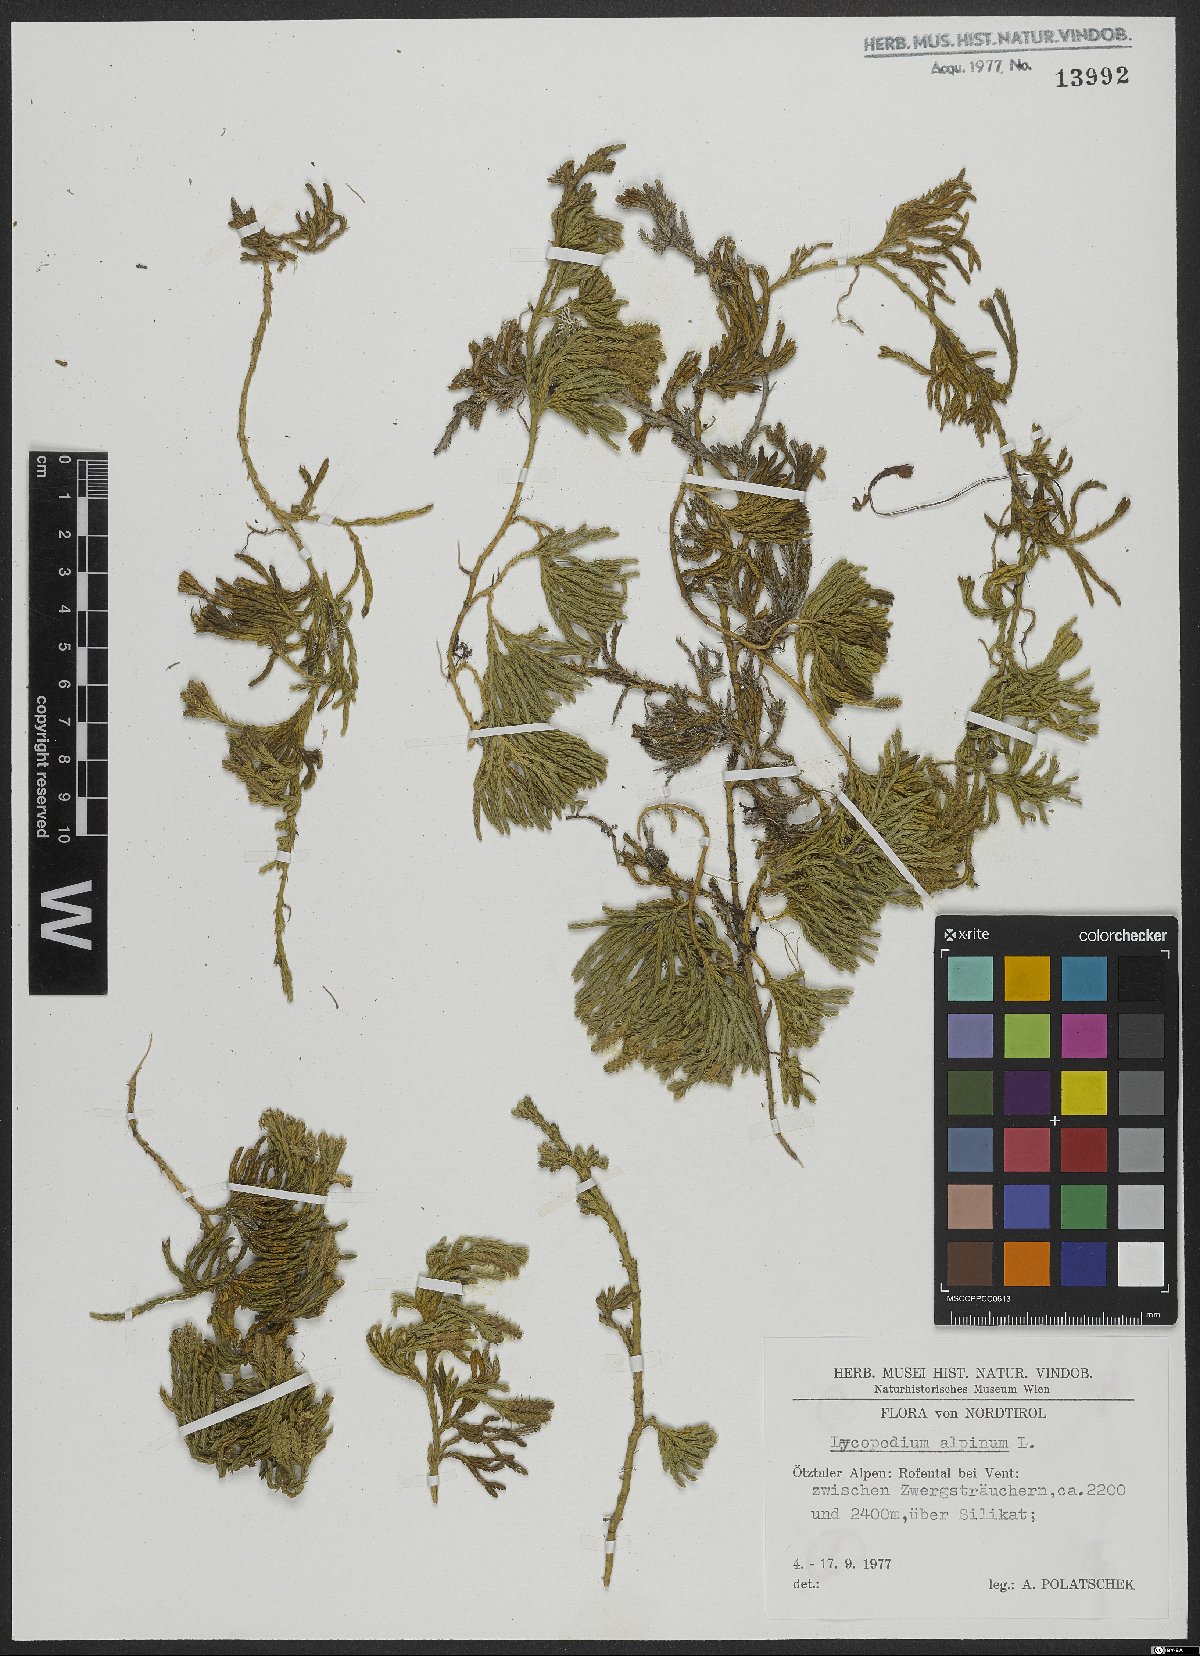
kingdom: Plantae
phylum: Tracheophyta
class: Lycopodiopsida
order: Lycopodiales
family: Lycopodiaceae
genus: Diphasiastrum
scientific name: Diphasiastrum alpinum
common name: Alpine clubmoss
